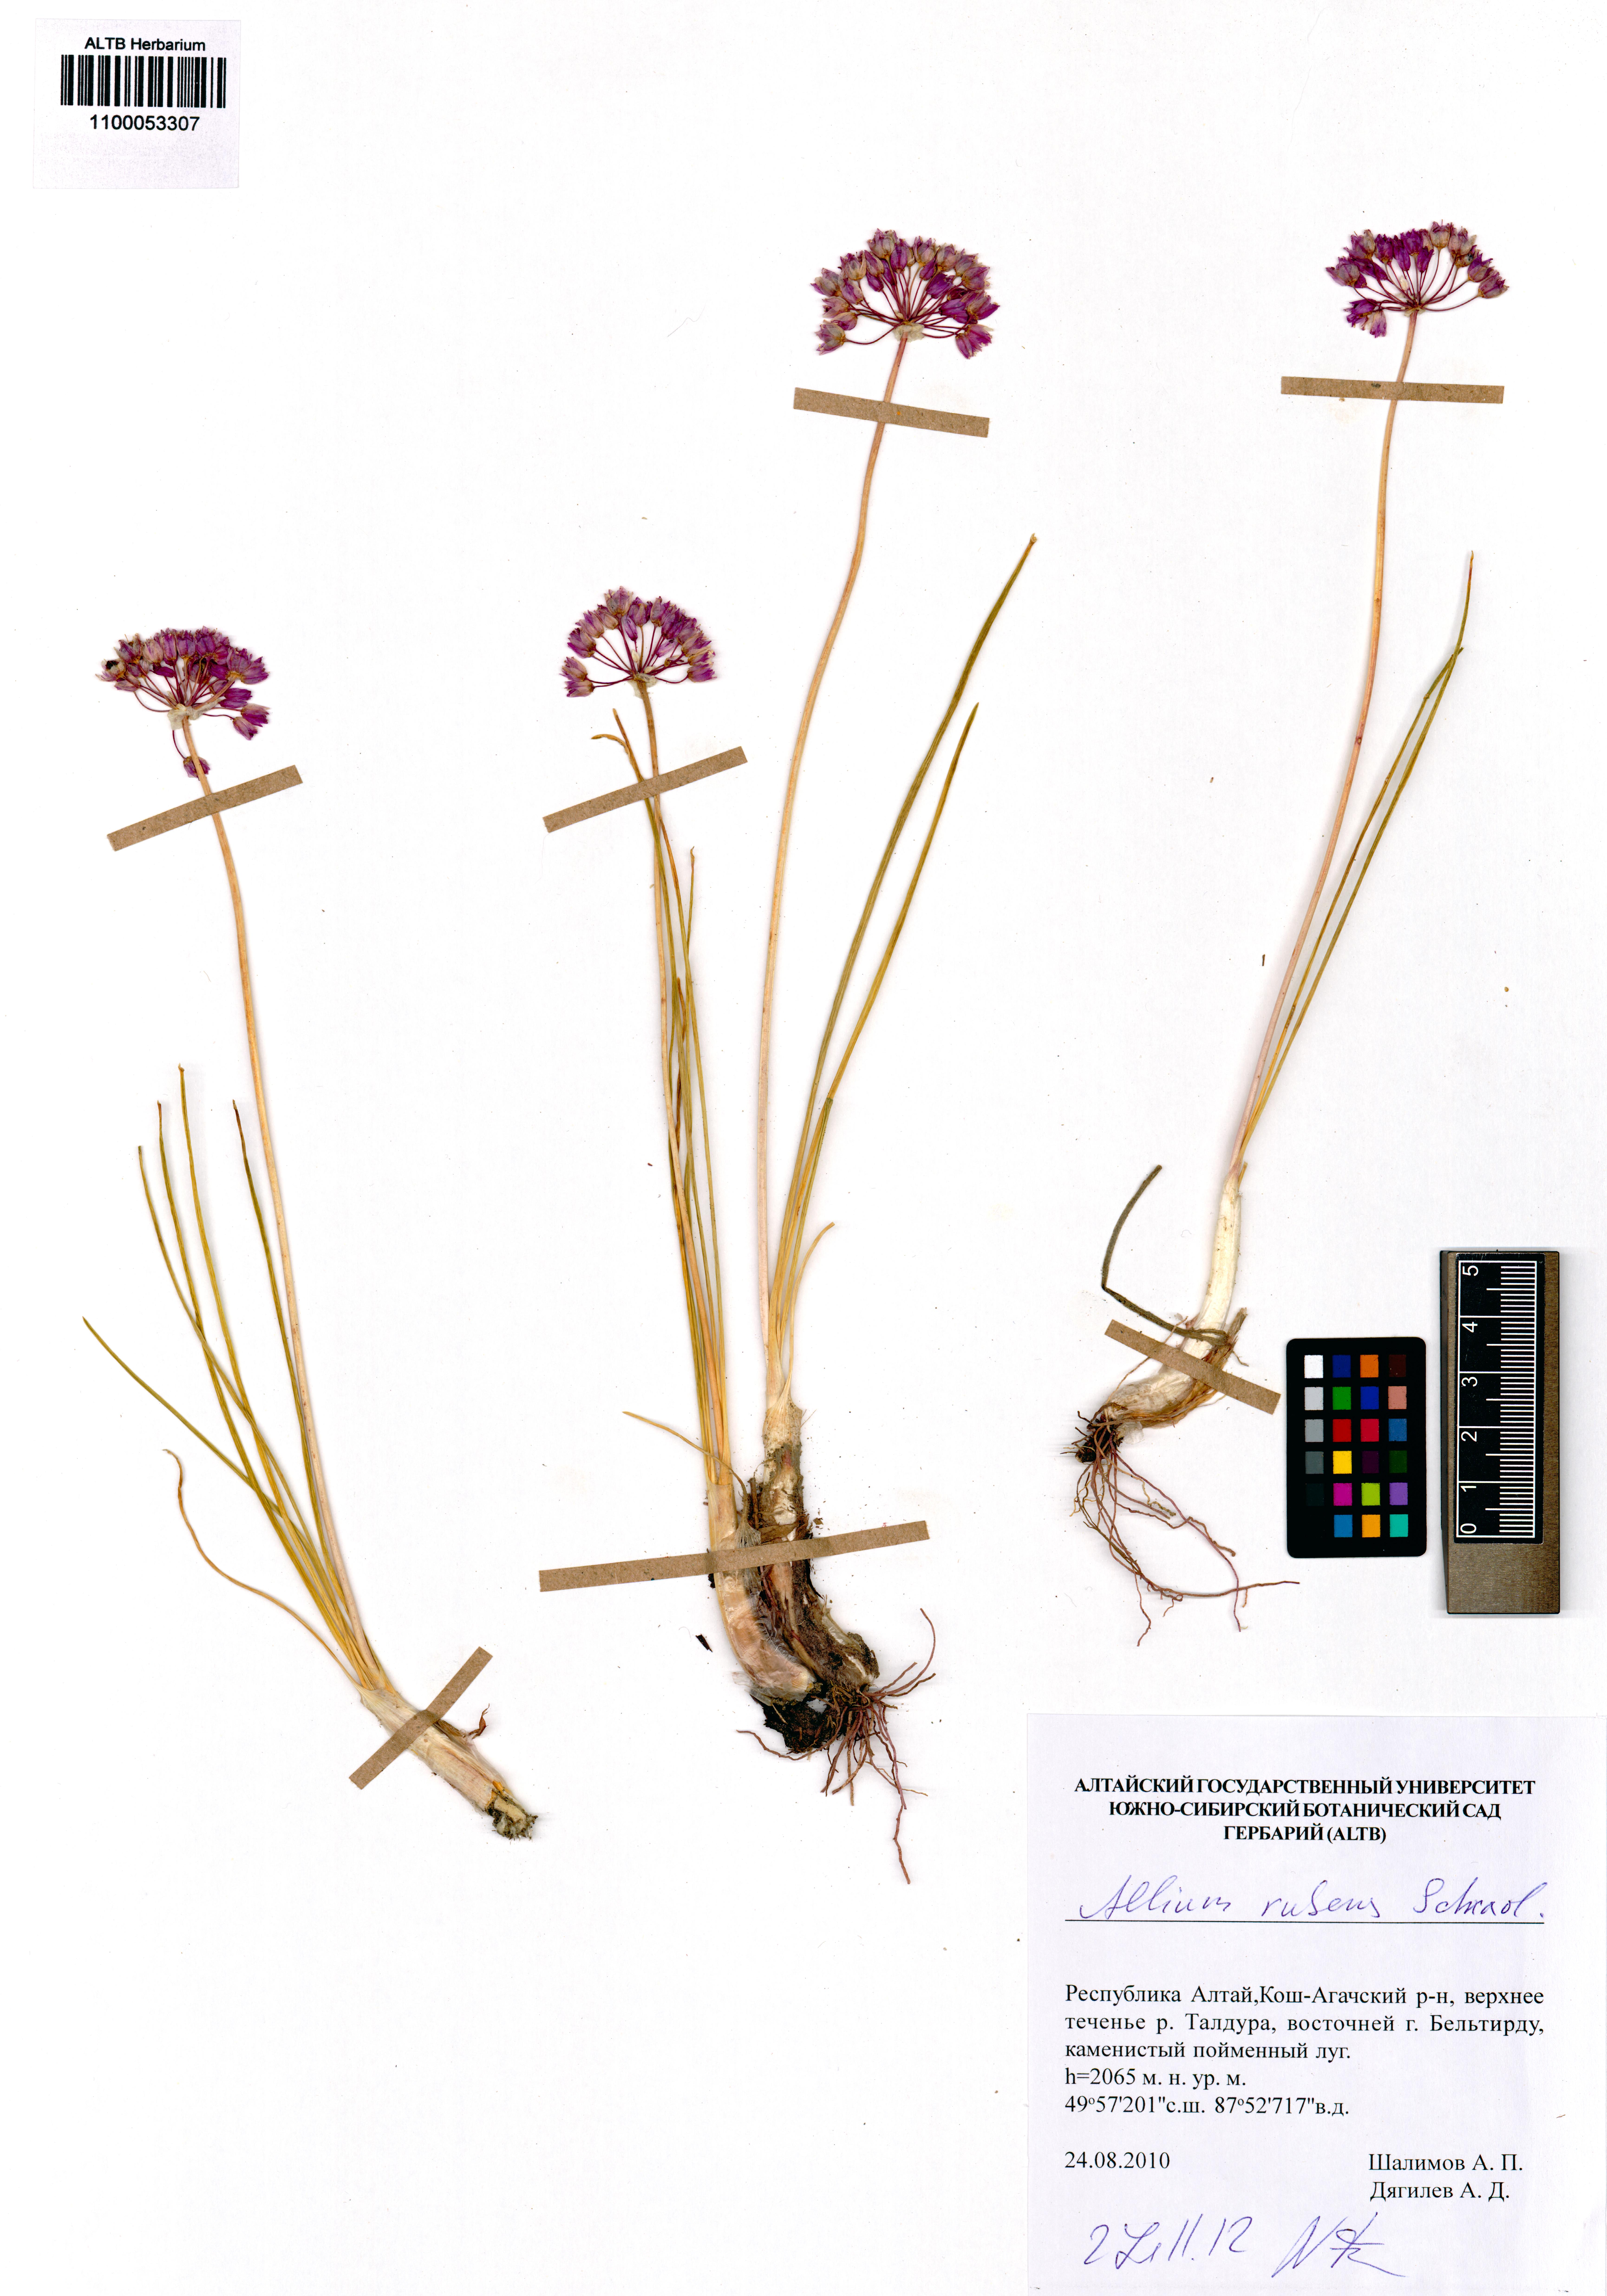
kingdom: Plantae
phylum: Tracheophyta
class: Liliopsida
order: Asparagales
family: Amaryllidaceae
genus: Allium
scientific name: Allium rubens
